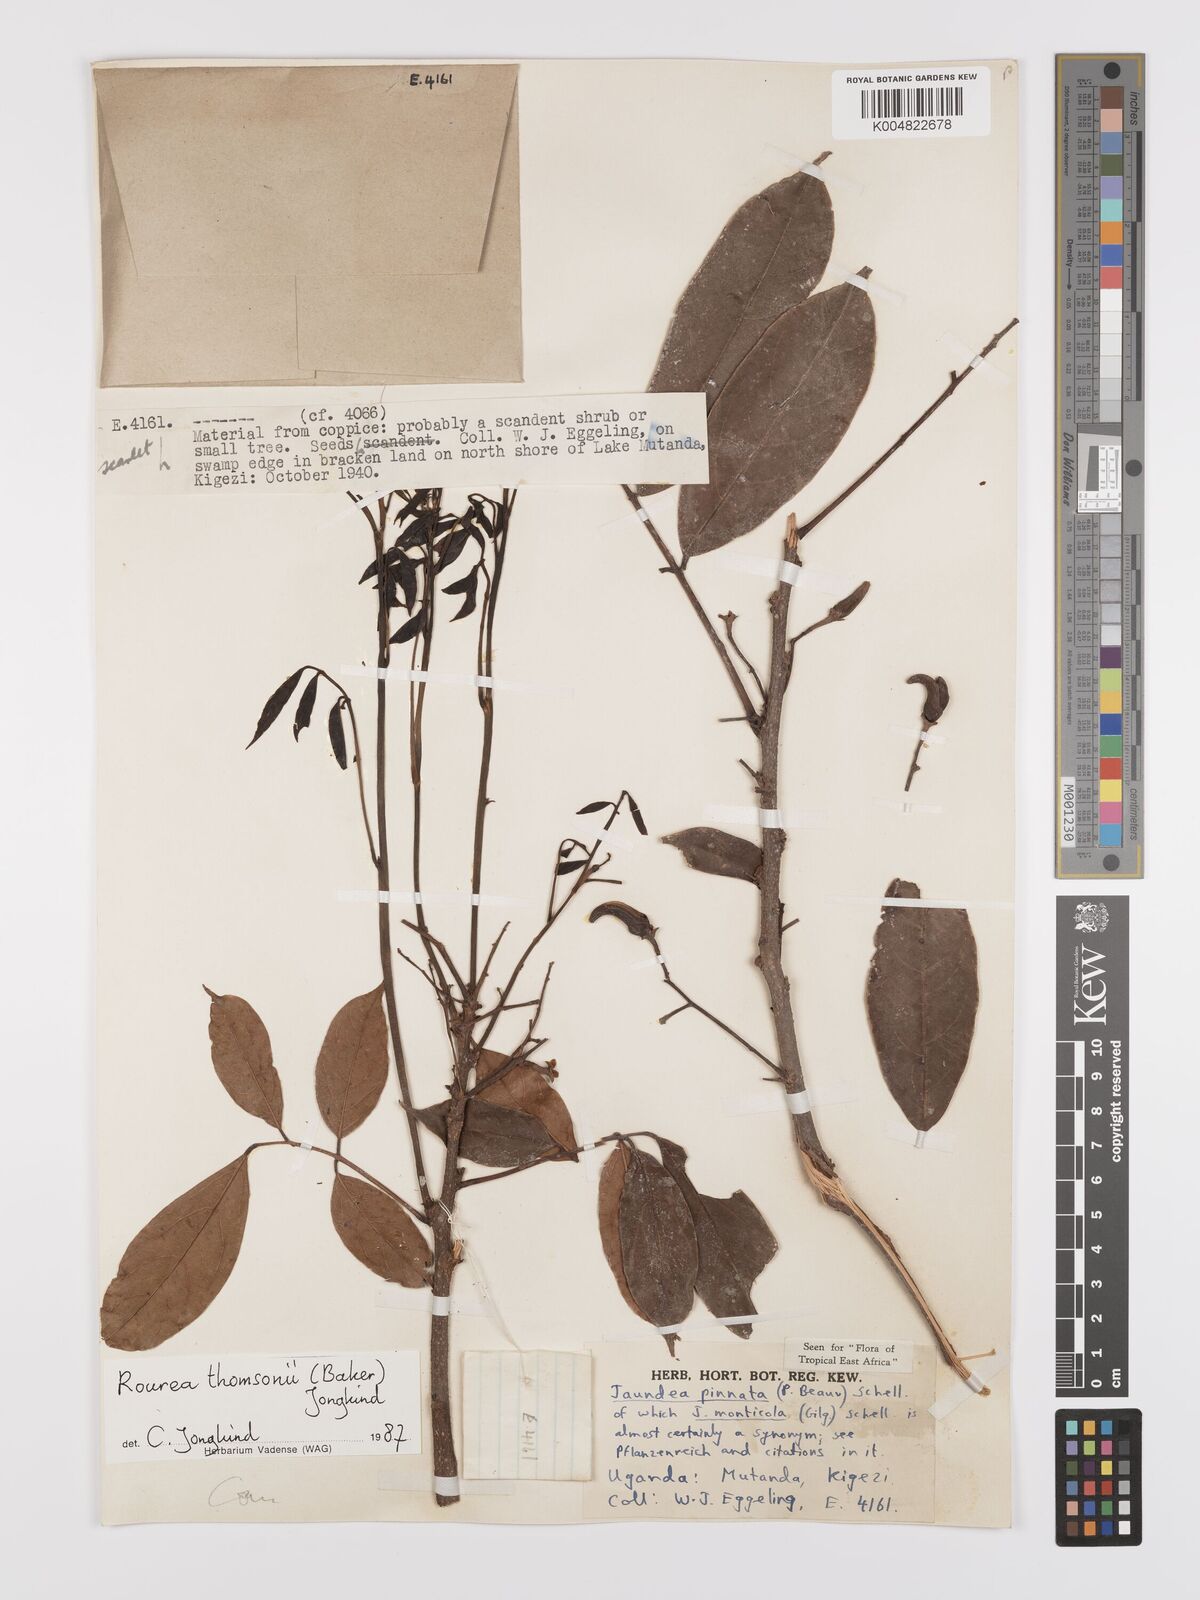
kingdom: Plantae
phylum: Tracheophyta
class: Magnoliopsida
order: Oxalidales
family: Connaraceae
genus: Rourea
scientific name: Rourea pinnata
